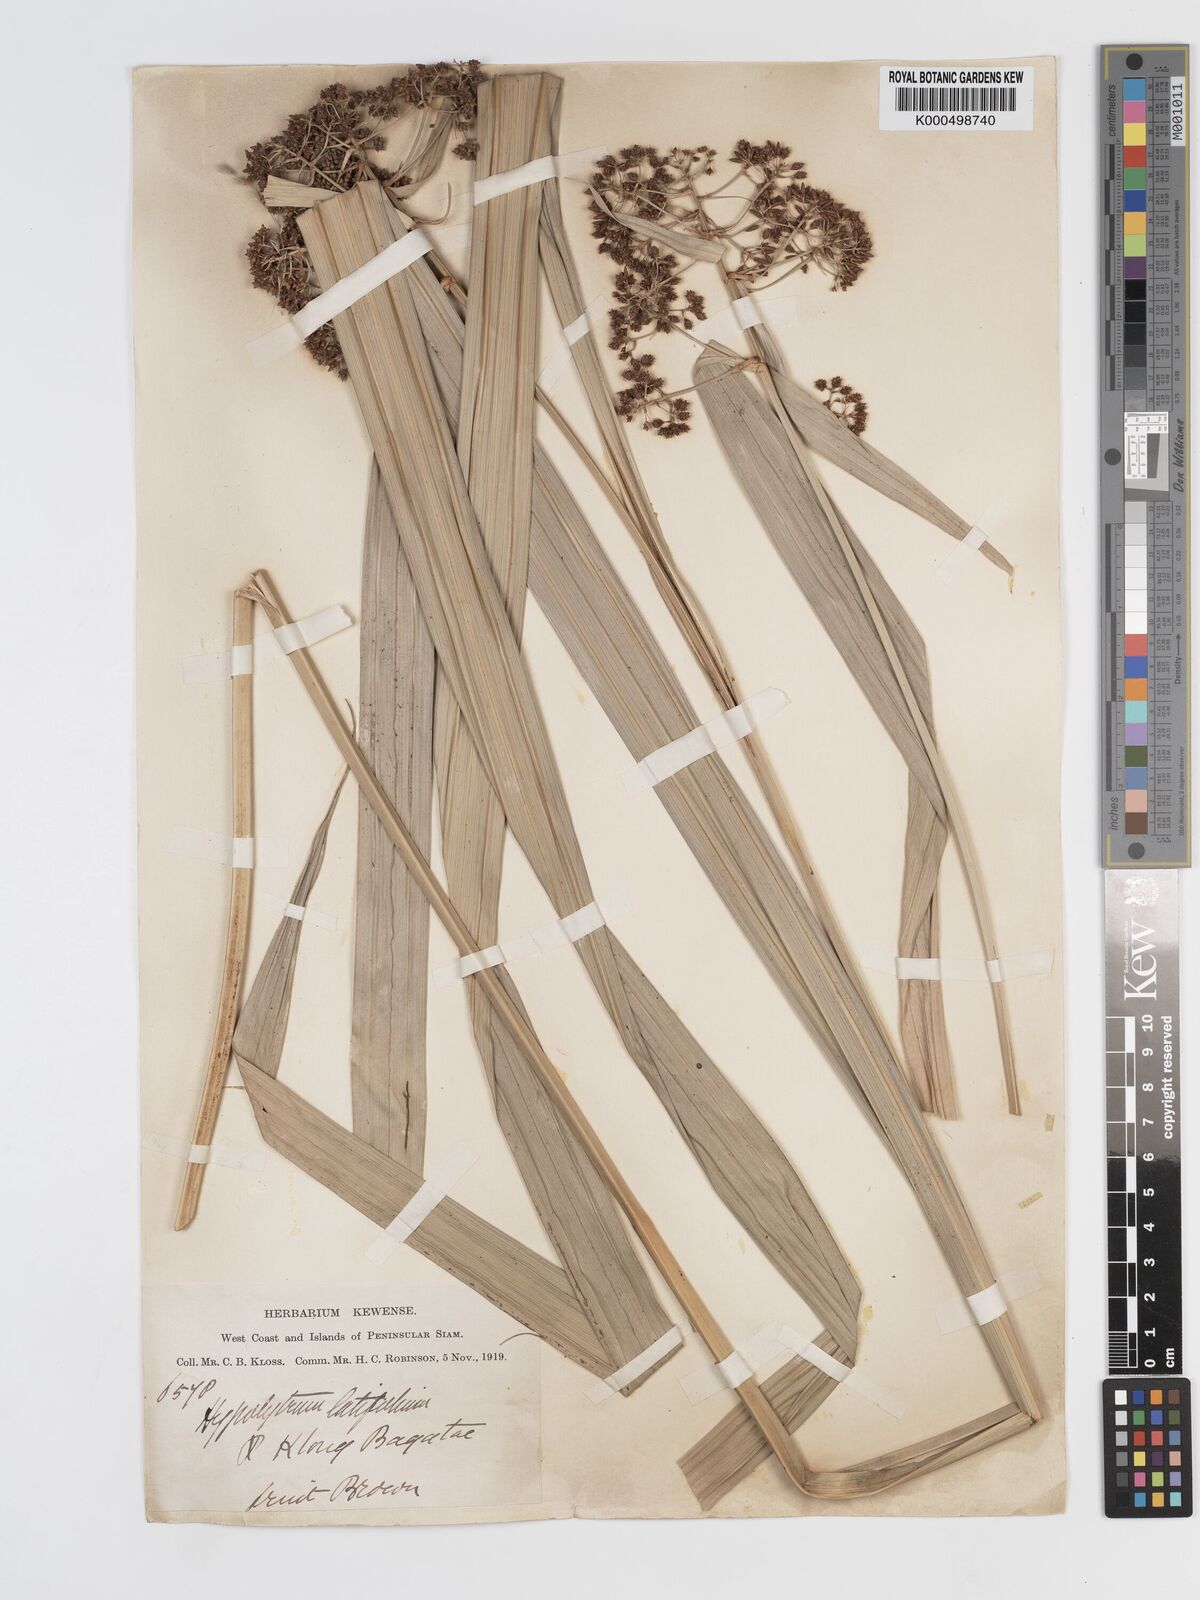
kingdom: Plantae
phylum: Tracheophyta
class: Liliopsida
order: Poales
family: Cyperaceae
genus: Hypolytrum
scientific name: Hypolytrum nemorum
